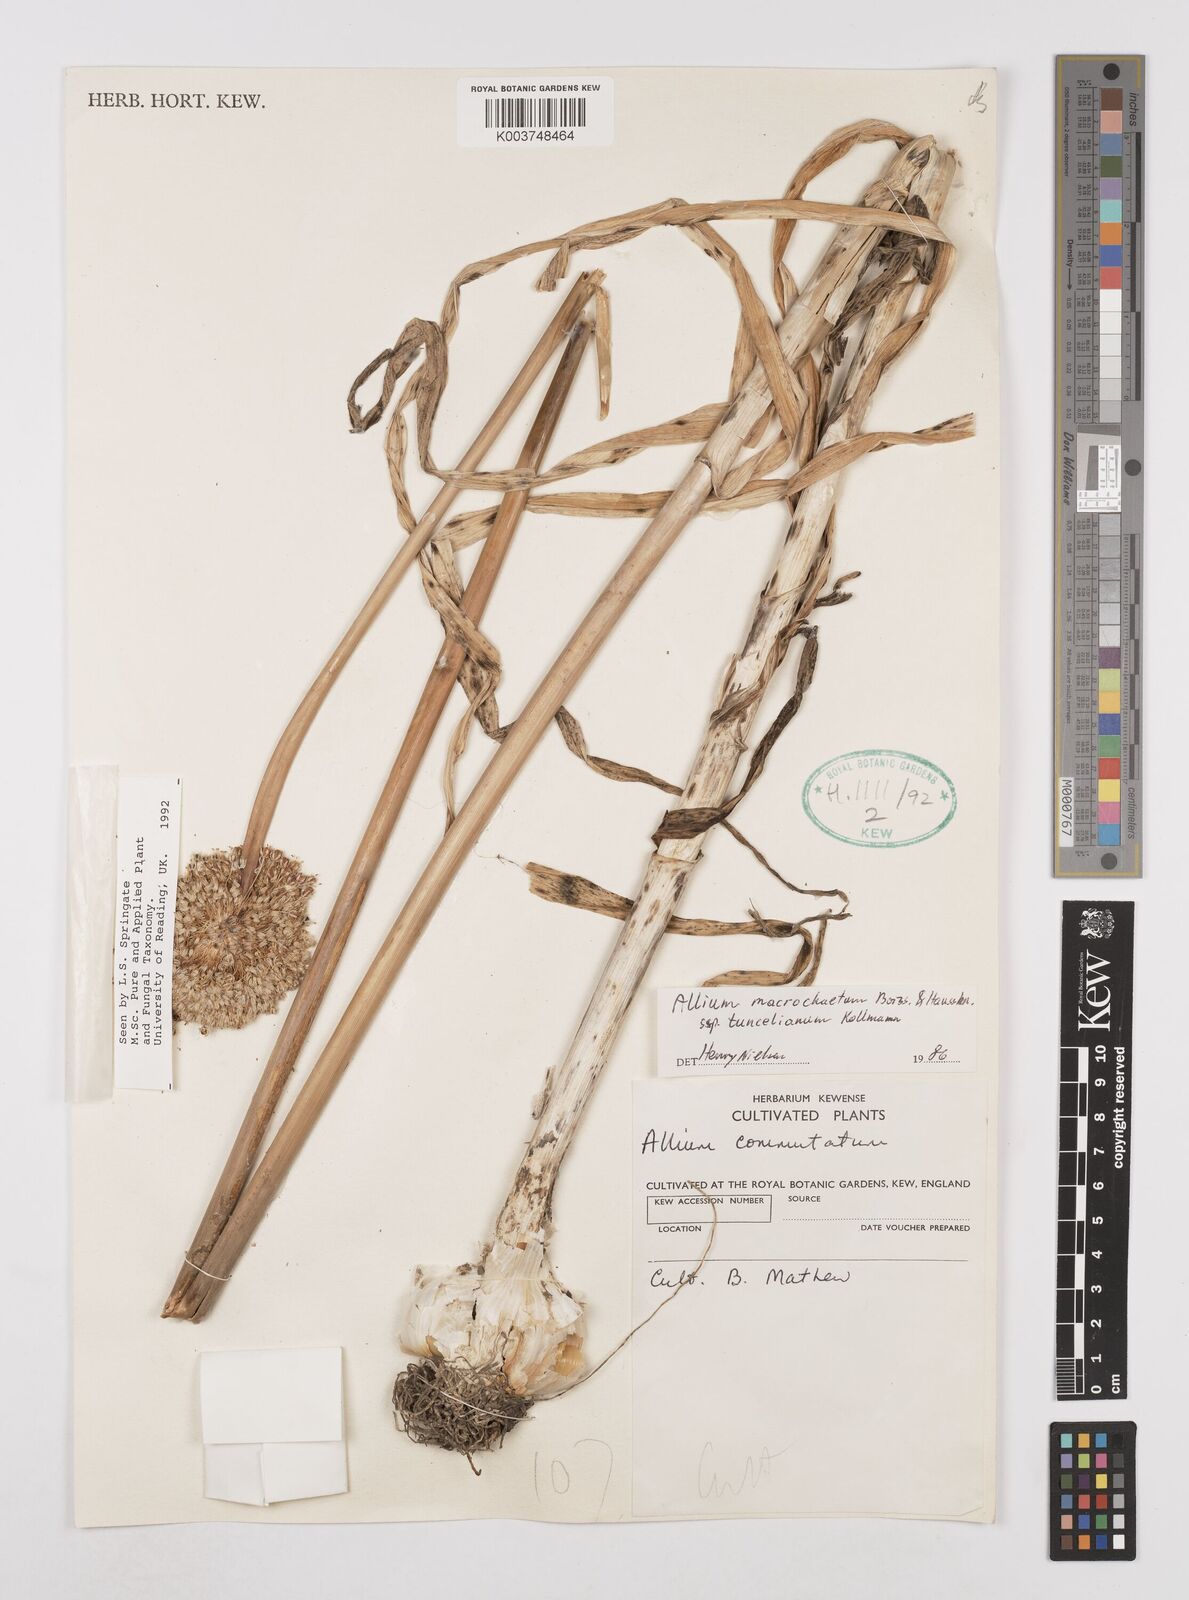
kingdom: Plantae
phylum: Tracheophyta
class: Liliopsida
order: Asparagales
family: Amaryllidaceae
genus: Allium
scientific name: Allium tuncelianum
